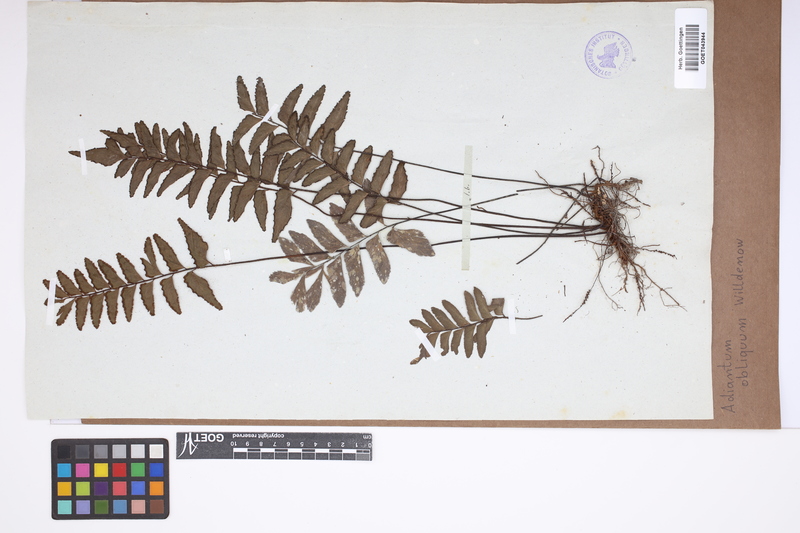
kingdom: Plantae
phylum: Tracheophyta
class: Polypodiopsida
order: Polypodiales
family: Pteridaceae
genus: Adiantum
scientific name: Adiantum obliquum
